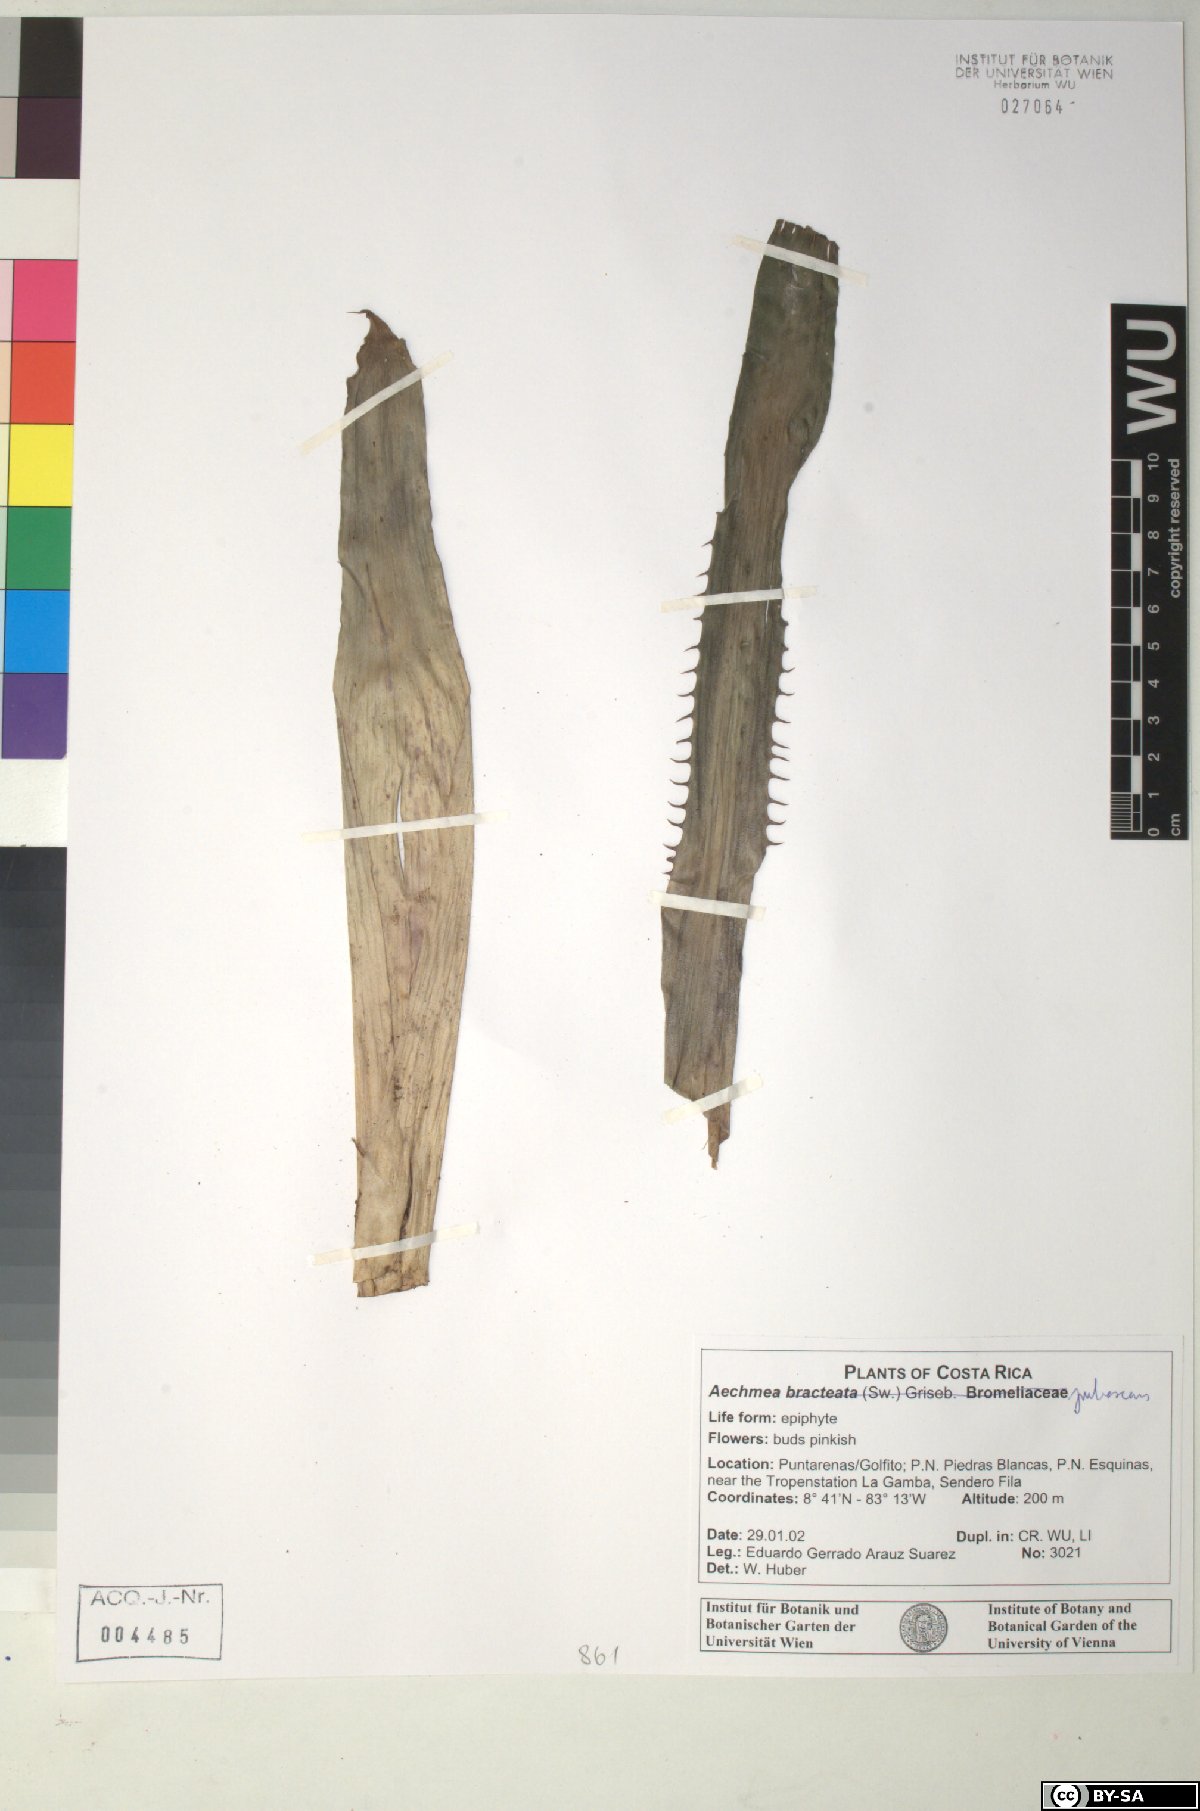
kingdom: Plantae
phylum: Tracheophyta
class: Liliopsida
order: Poales
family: Bromeliaceae
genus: Aechmea
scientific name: Aechmea bracteata
